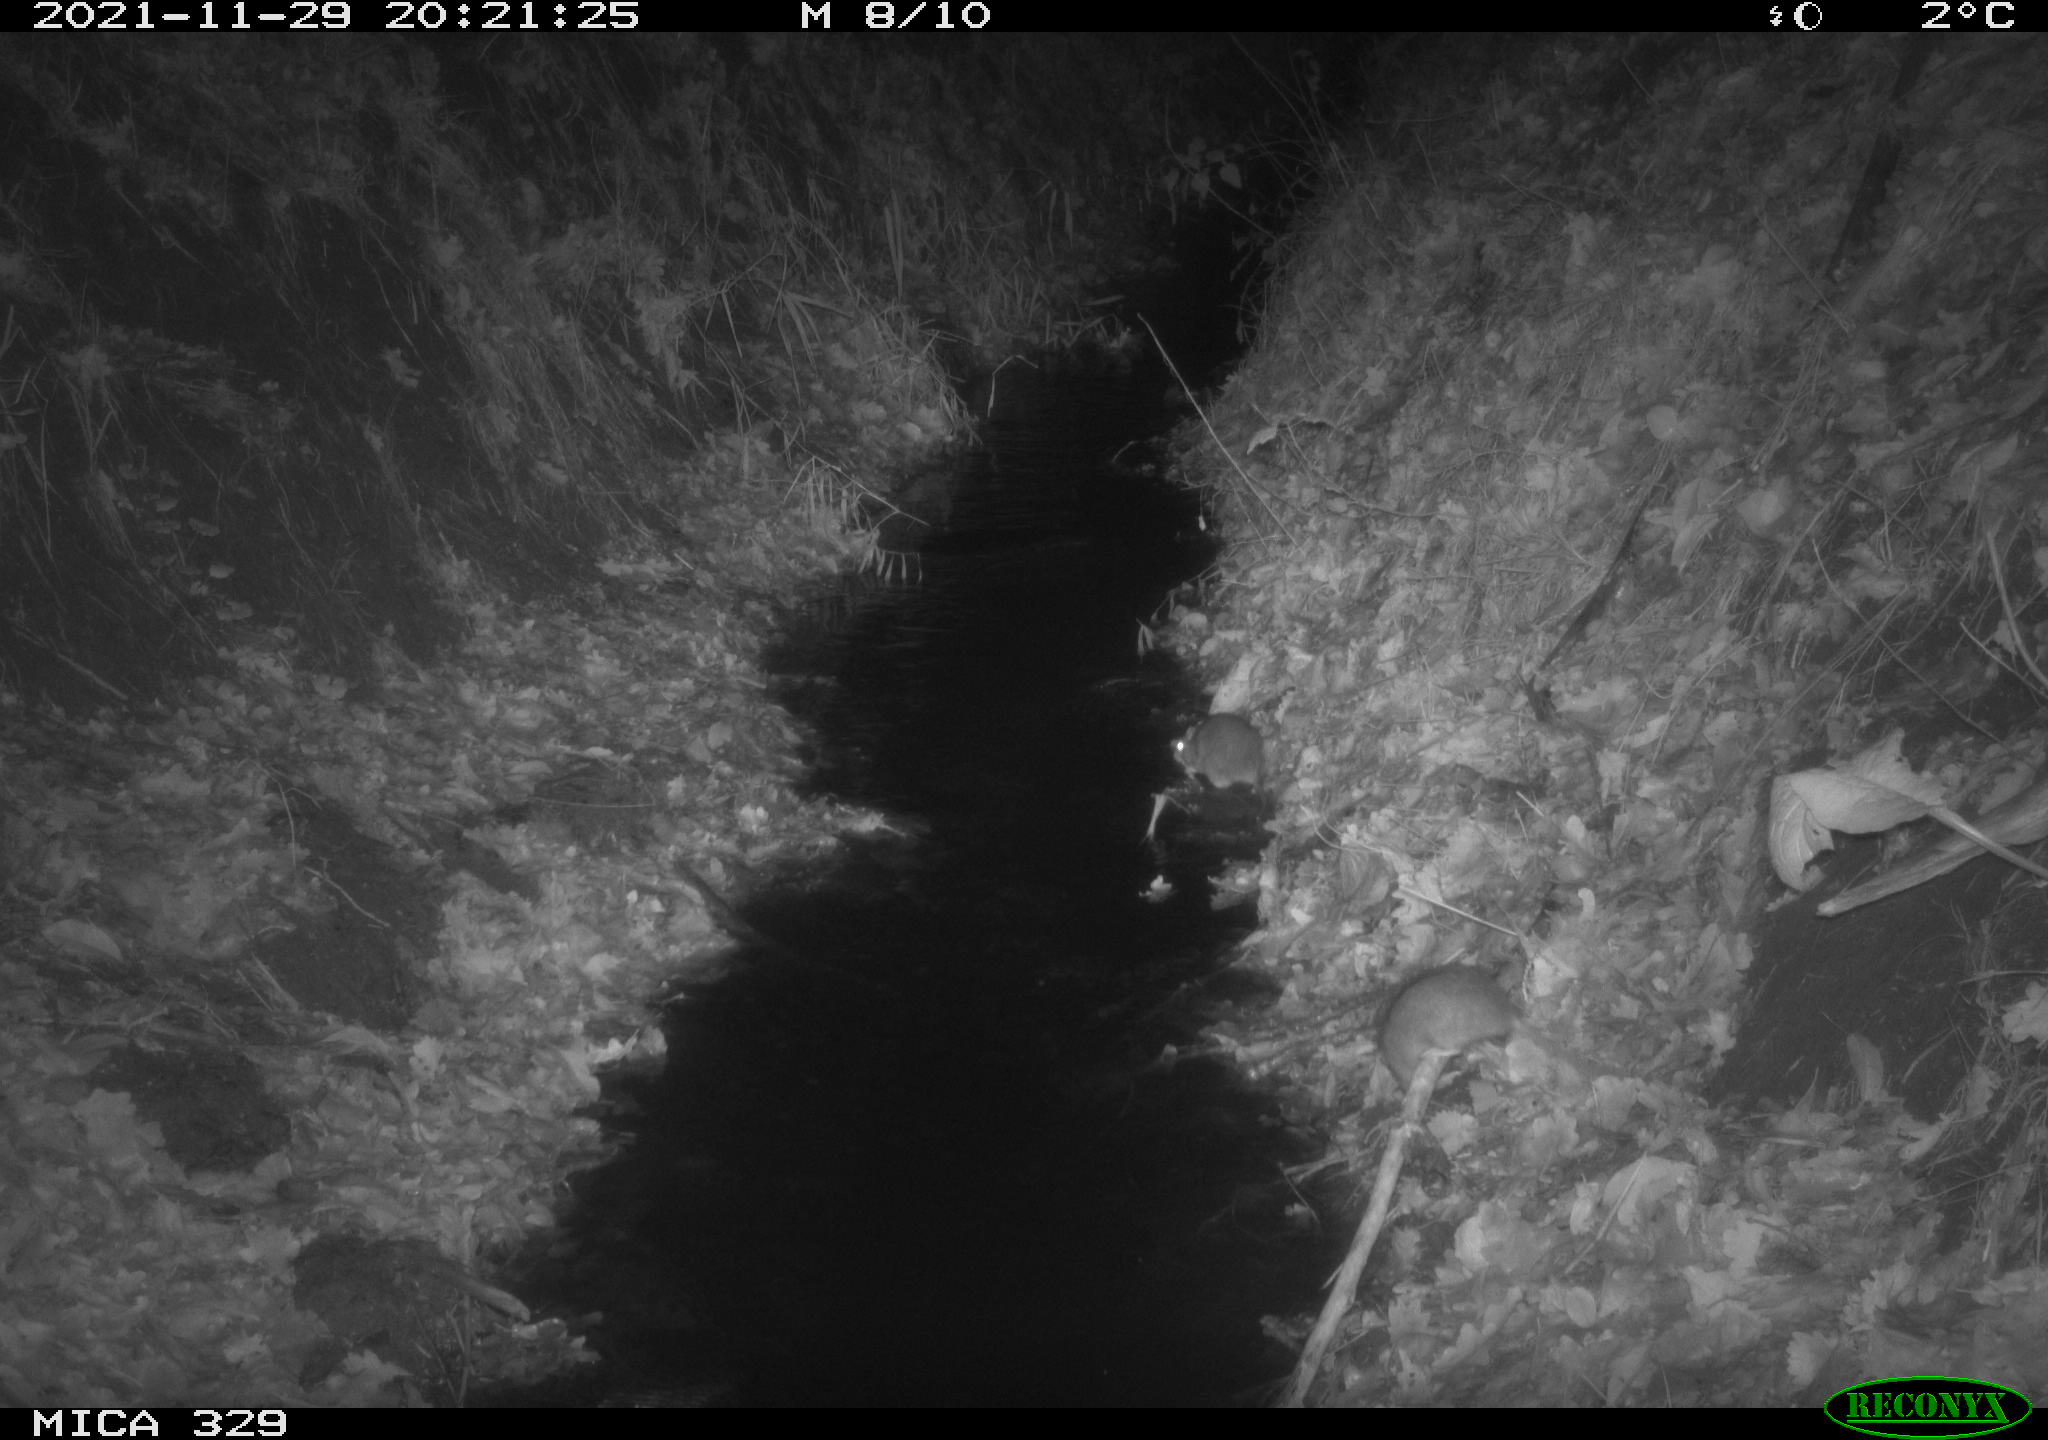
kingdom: Animalia
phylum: Chordata
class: Mammalia
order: Rodentia
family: Muridae
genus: Rattus
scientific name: Rattus norvegicus
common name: Brown rat
